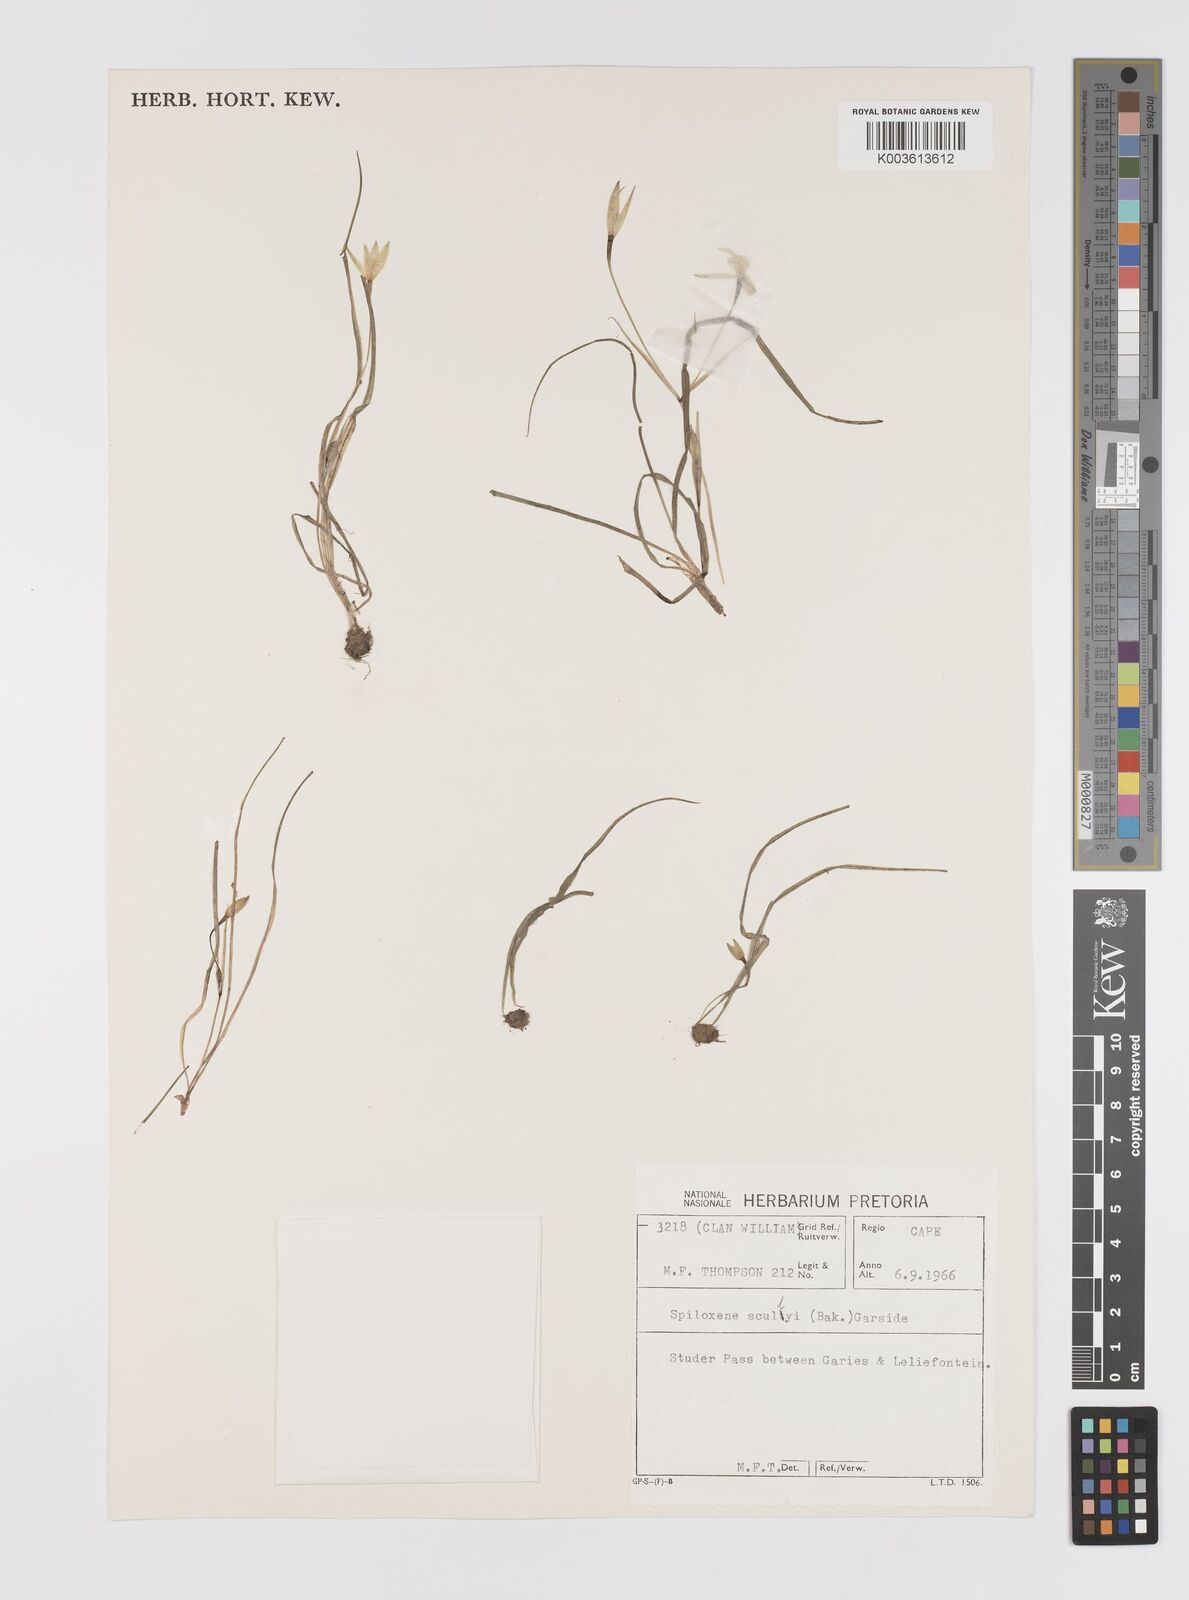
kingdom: Plantae
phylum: Tracheophyta
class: Liliopsida
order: Asparagales
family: Hypoxidaceae
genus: Pauridia
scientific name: Pauridia scullyi
